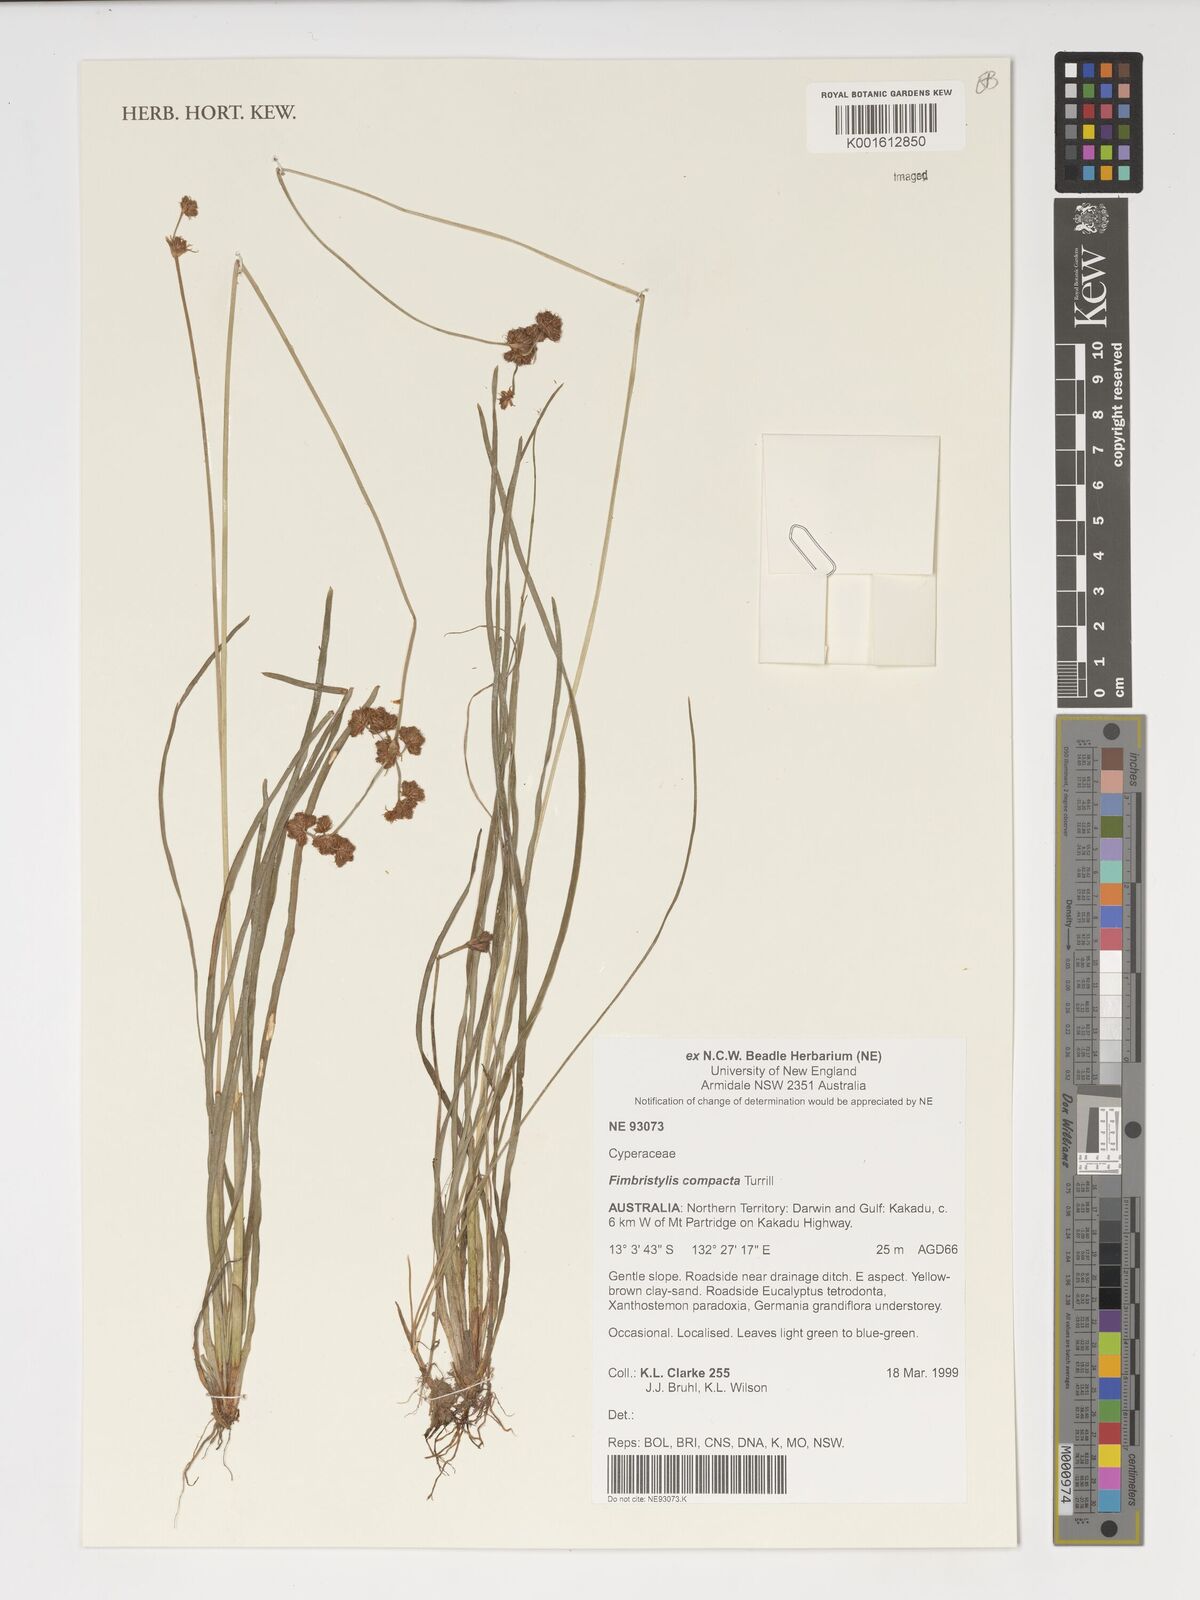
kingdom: Plantae
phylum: Tracheophyta
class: Liliopsida
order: Poales
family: Cyperaceae
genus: Fimbristylis
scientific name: Fimbristylis compacta
